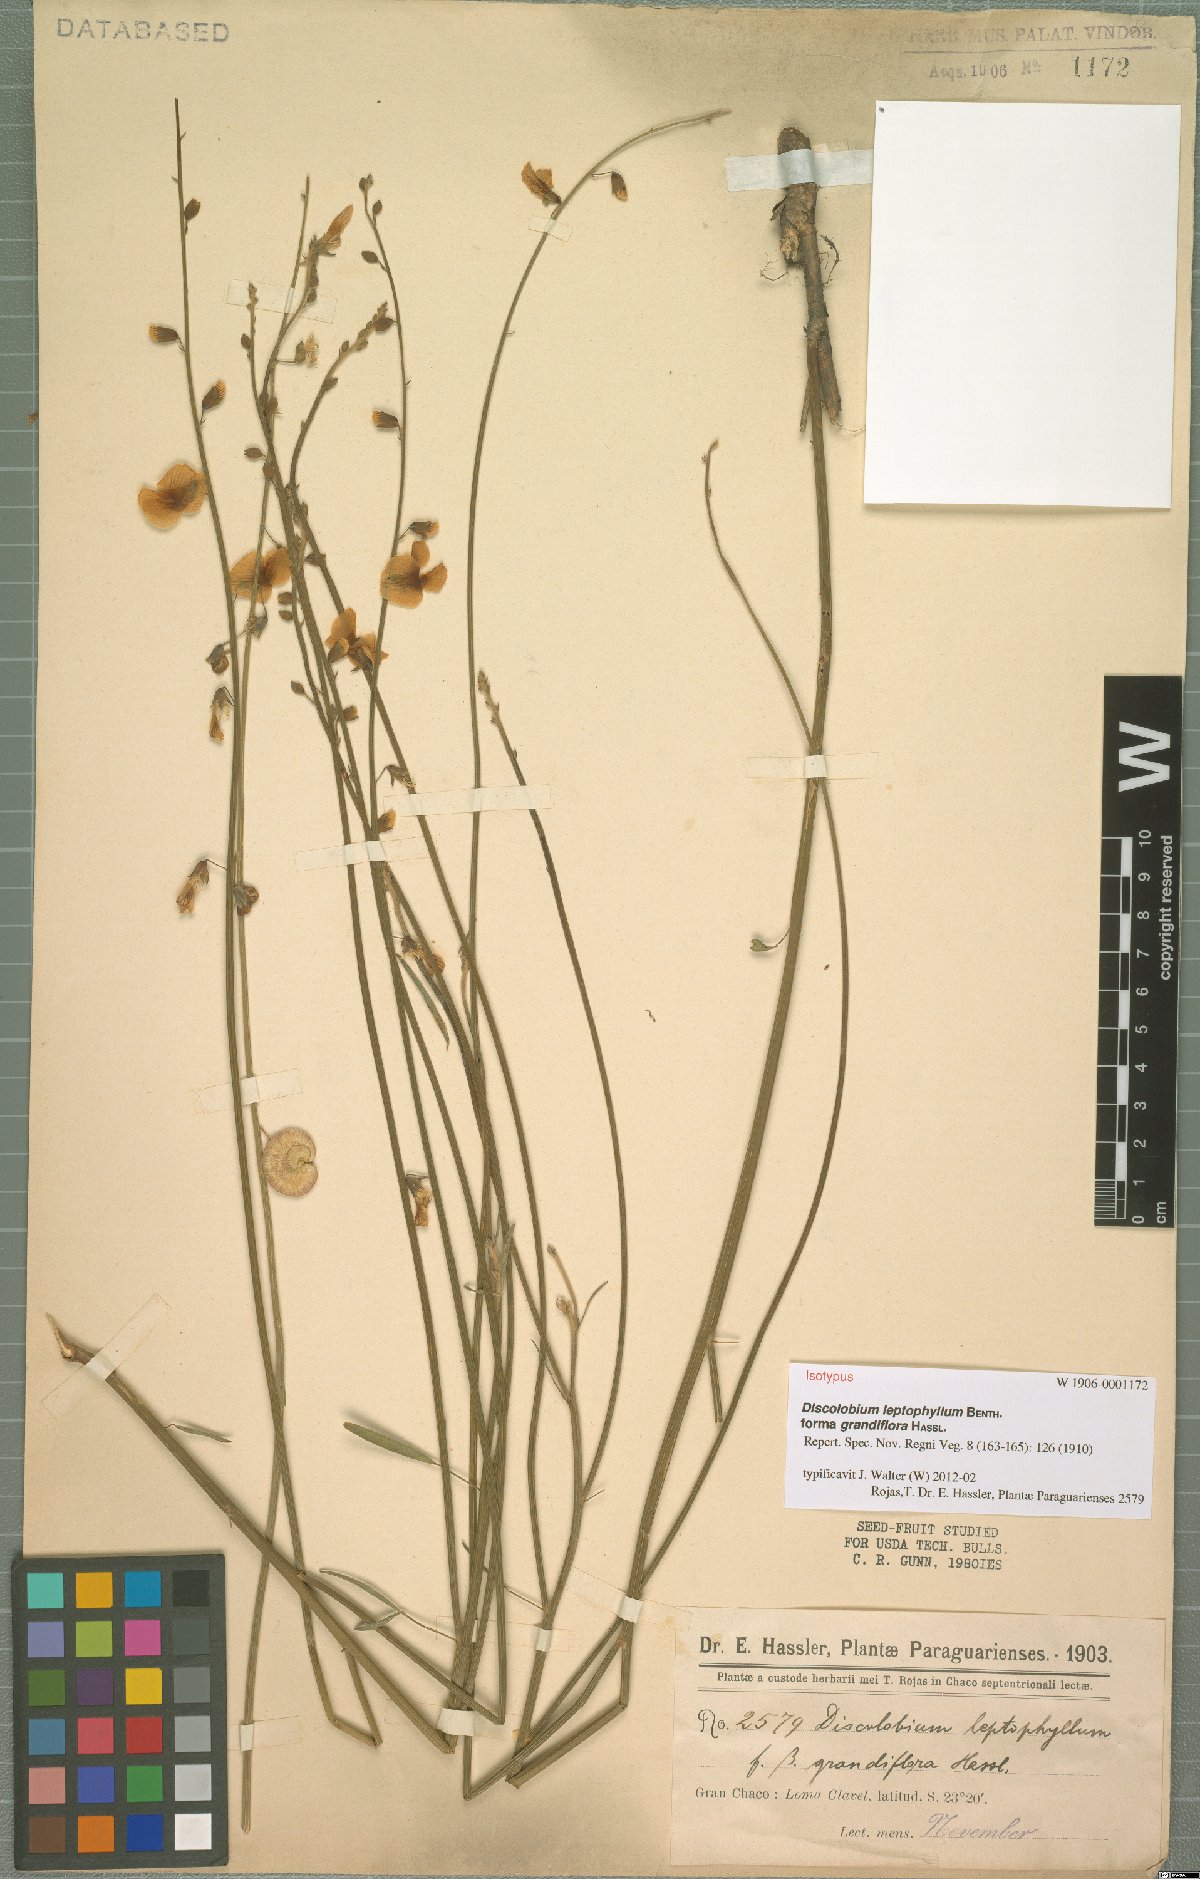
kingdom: Plantae
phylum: Tracheophyta
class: Magnoliopsida
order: Fabales
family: Fabaceae
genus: Discolobium
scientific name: Discolobium junceum
